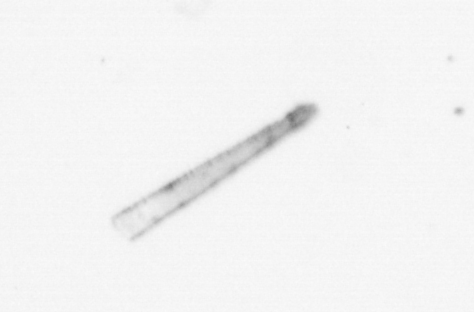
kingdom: Chromista
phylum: Ochrophyta
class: Bacillariophyceae
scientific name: Bacillariophyceae
